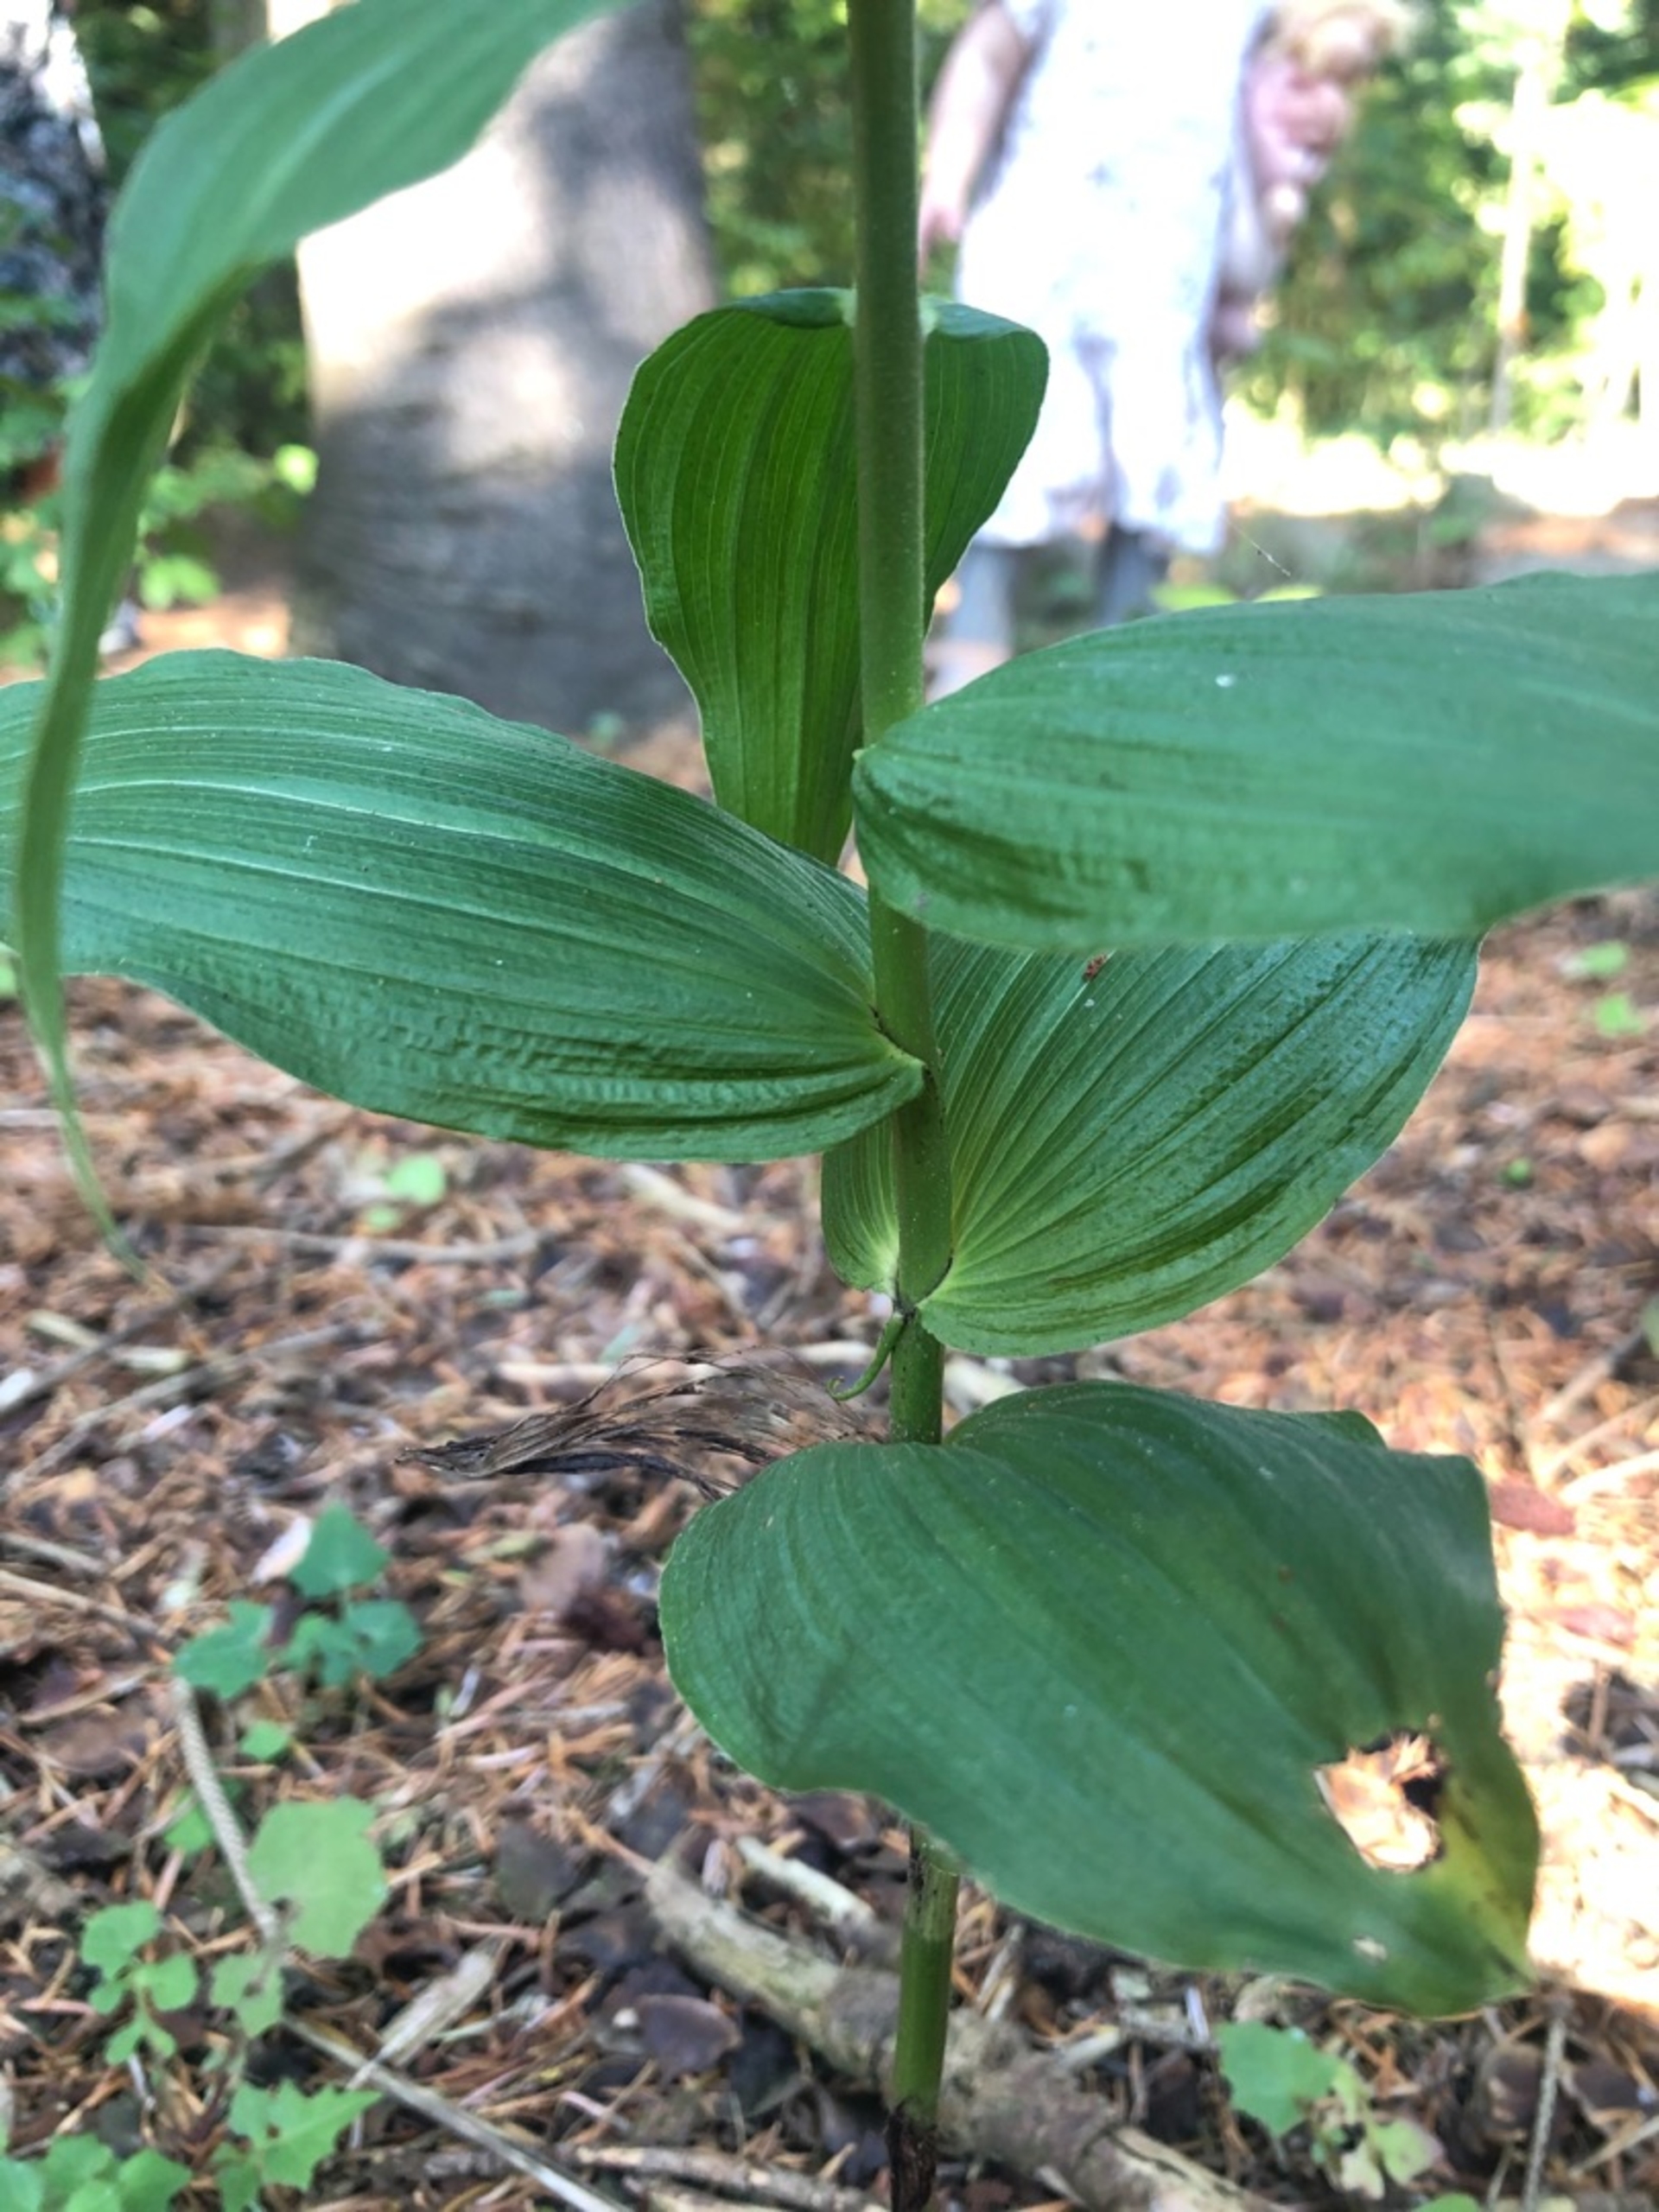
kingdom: Plantae
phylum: Tracheophyta
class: Liliopsida
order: Asparagales
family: Orchidaceae
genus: Epipactis
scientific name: Epipactis helleborine
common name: Skov-hullæbe
